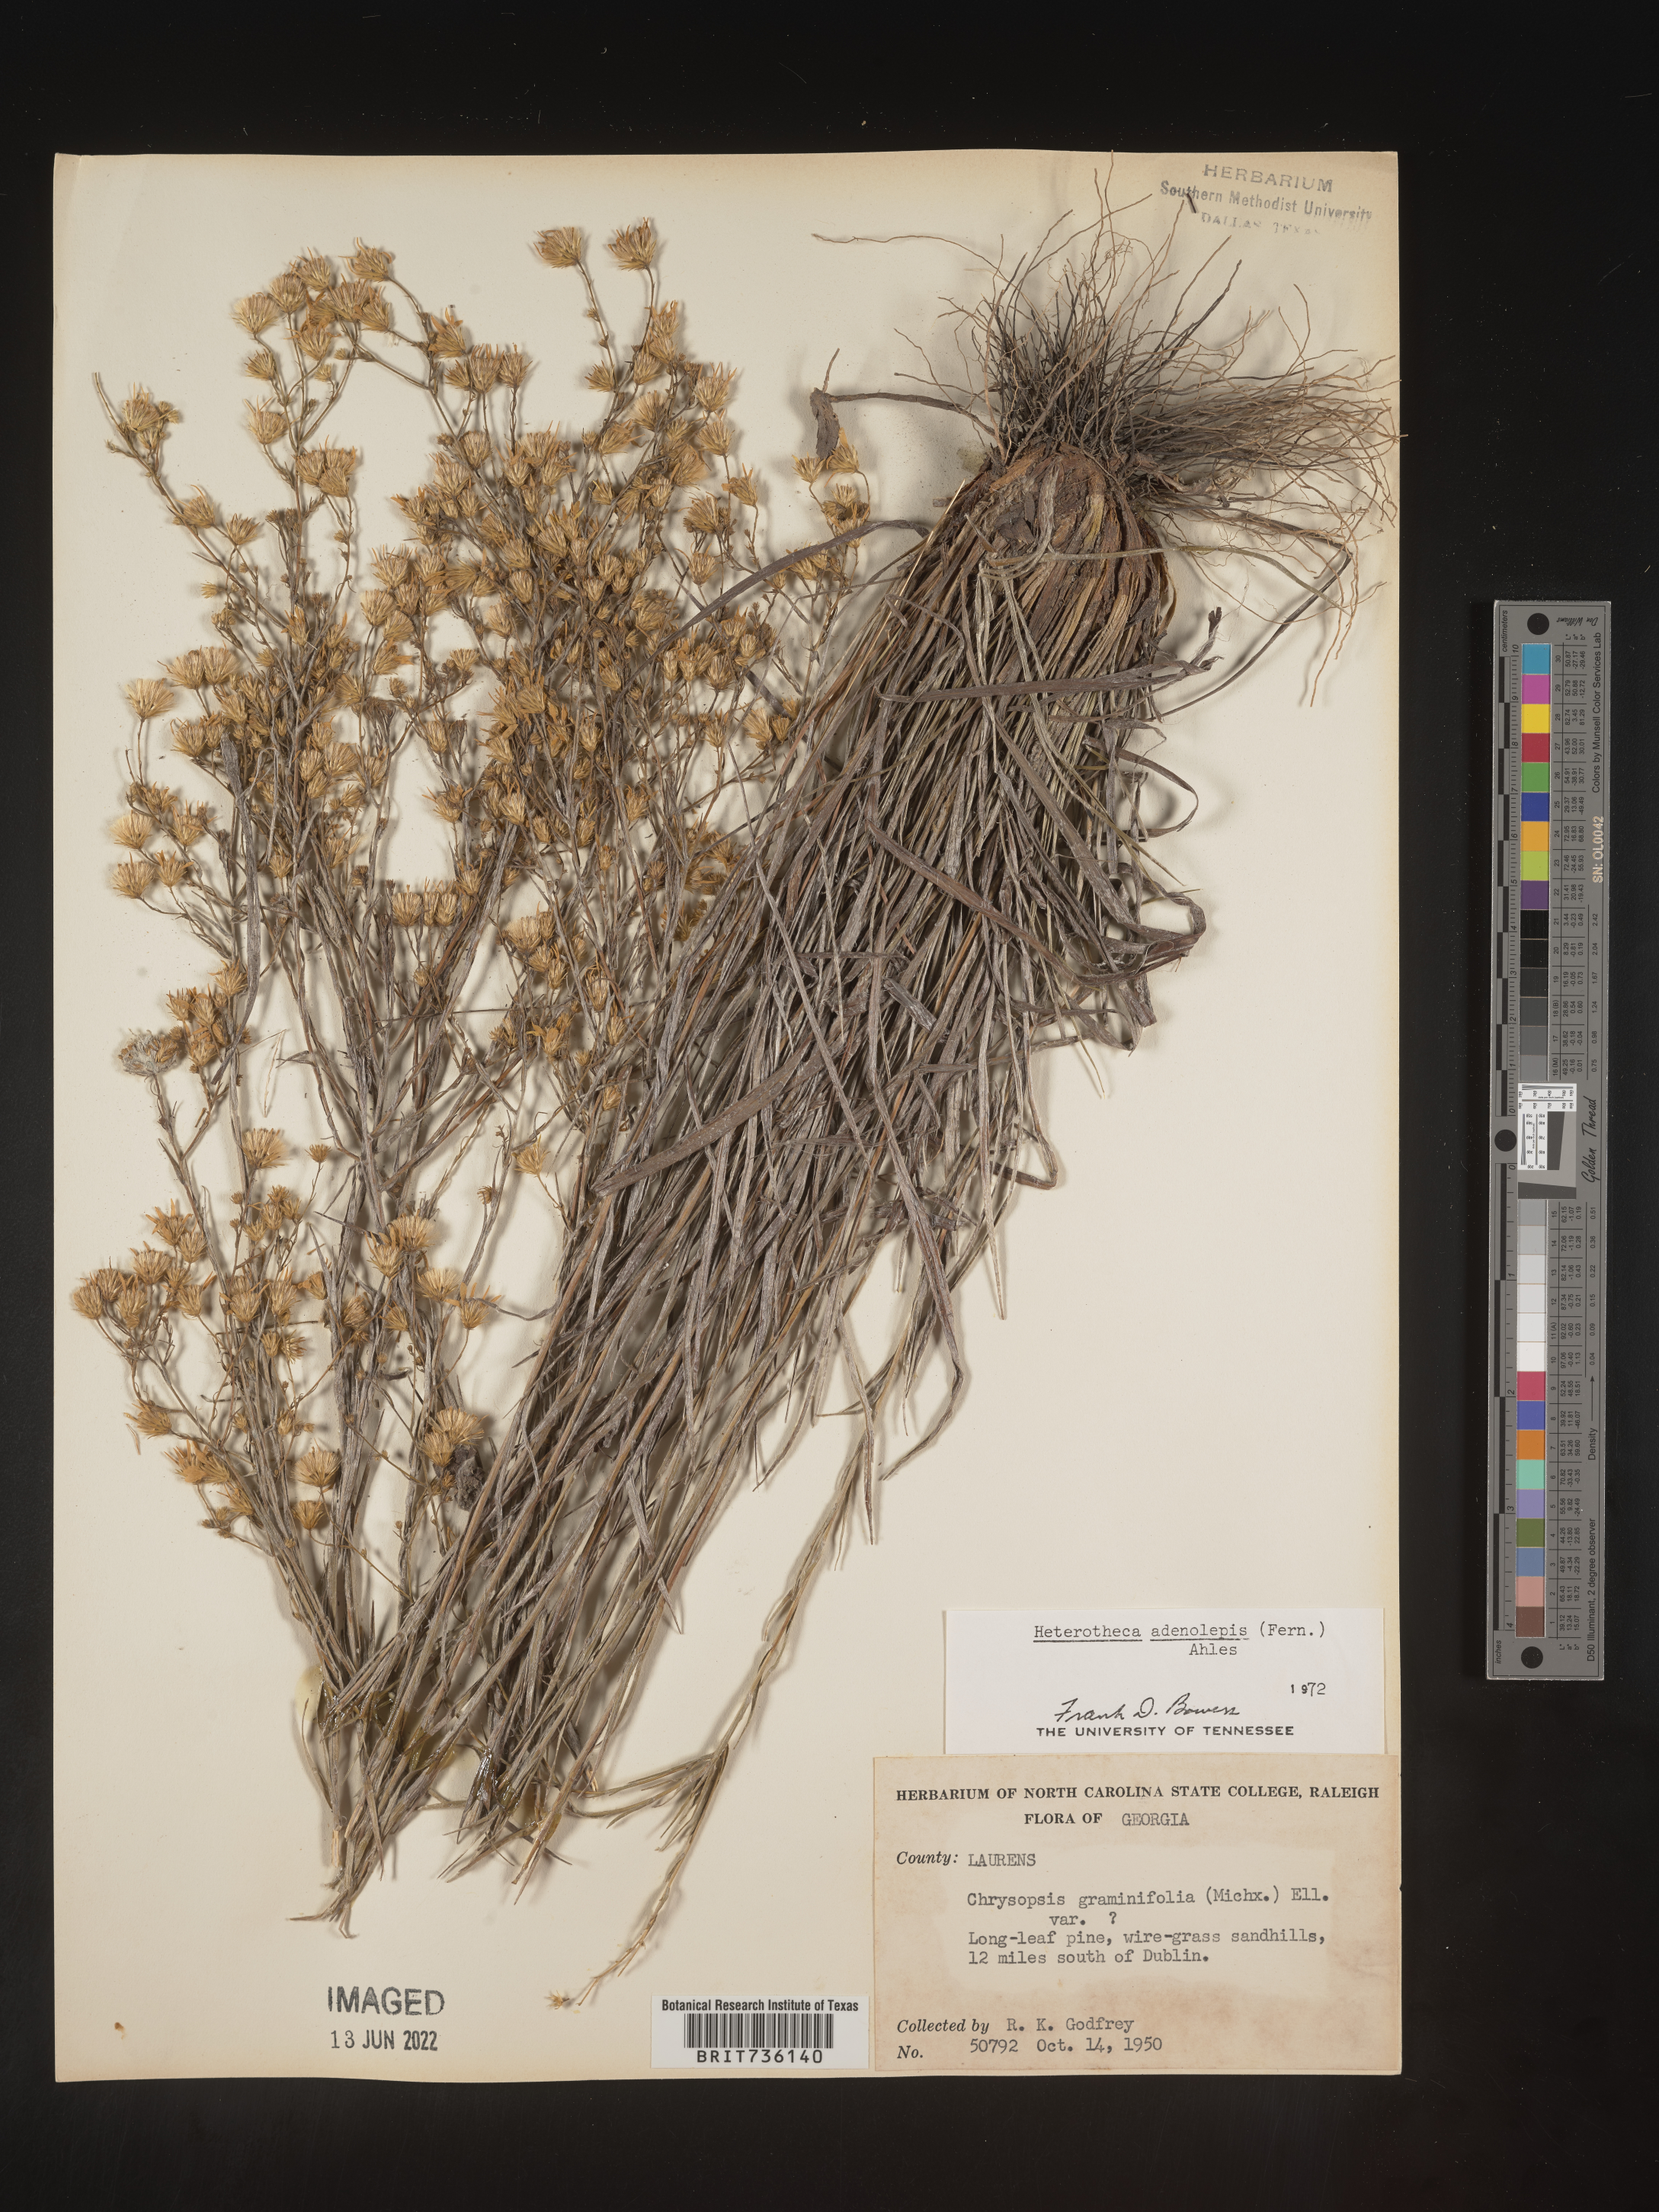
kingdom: Plantae
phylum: Tracheophyta
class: Magnoliopsida
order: Asterales
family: Asteraceae
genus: Pityopsis
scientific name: Pityopsis aspera
